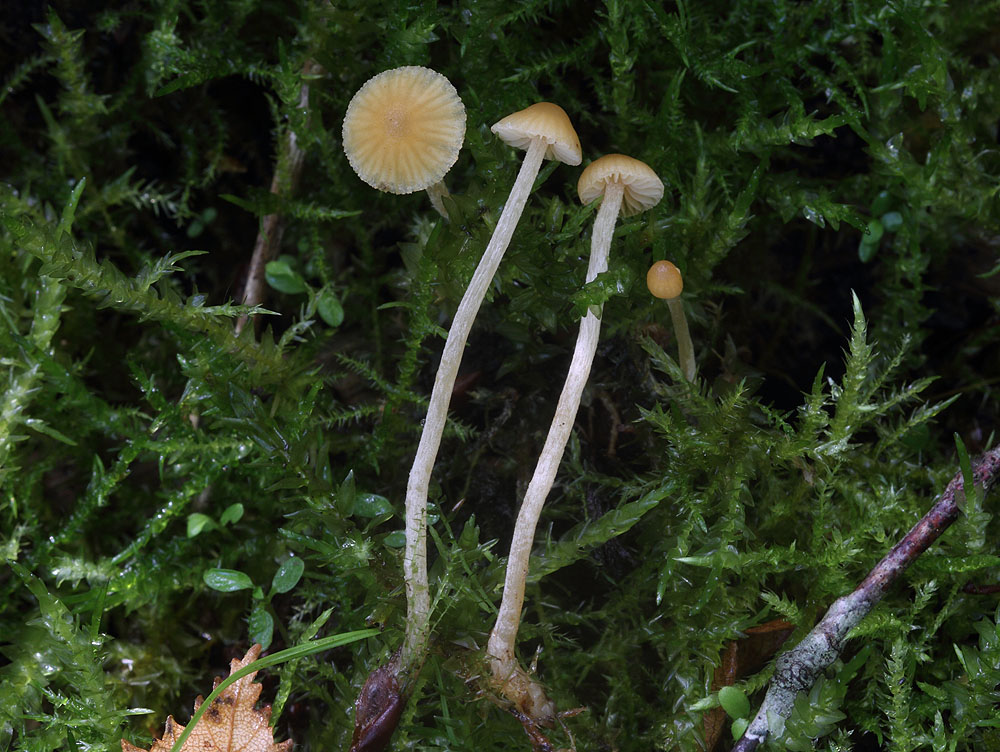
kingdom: Fungi
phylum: Basidiomycota
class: Agaricomycetes
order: Agaricales
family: Hymenogastraceae
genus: Galerina
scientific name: Galerina clavata
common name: kær-hjelmhat
